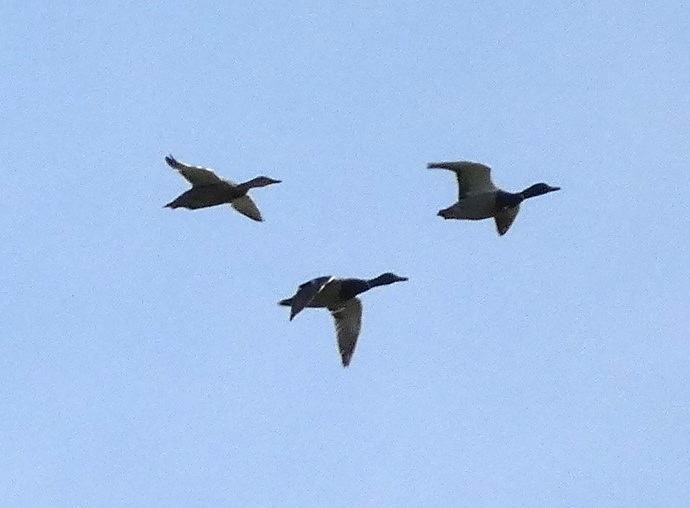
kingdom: Animalia
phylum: Chordata
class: Aves
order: Anseriformes
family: Anatidae
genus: Anas
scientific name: Anas platyrhynchos
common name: Gråand
